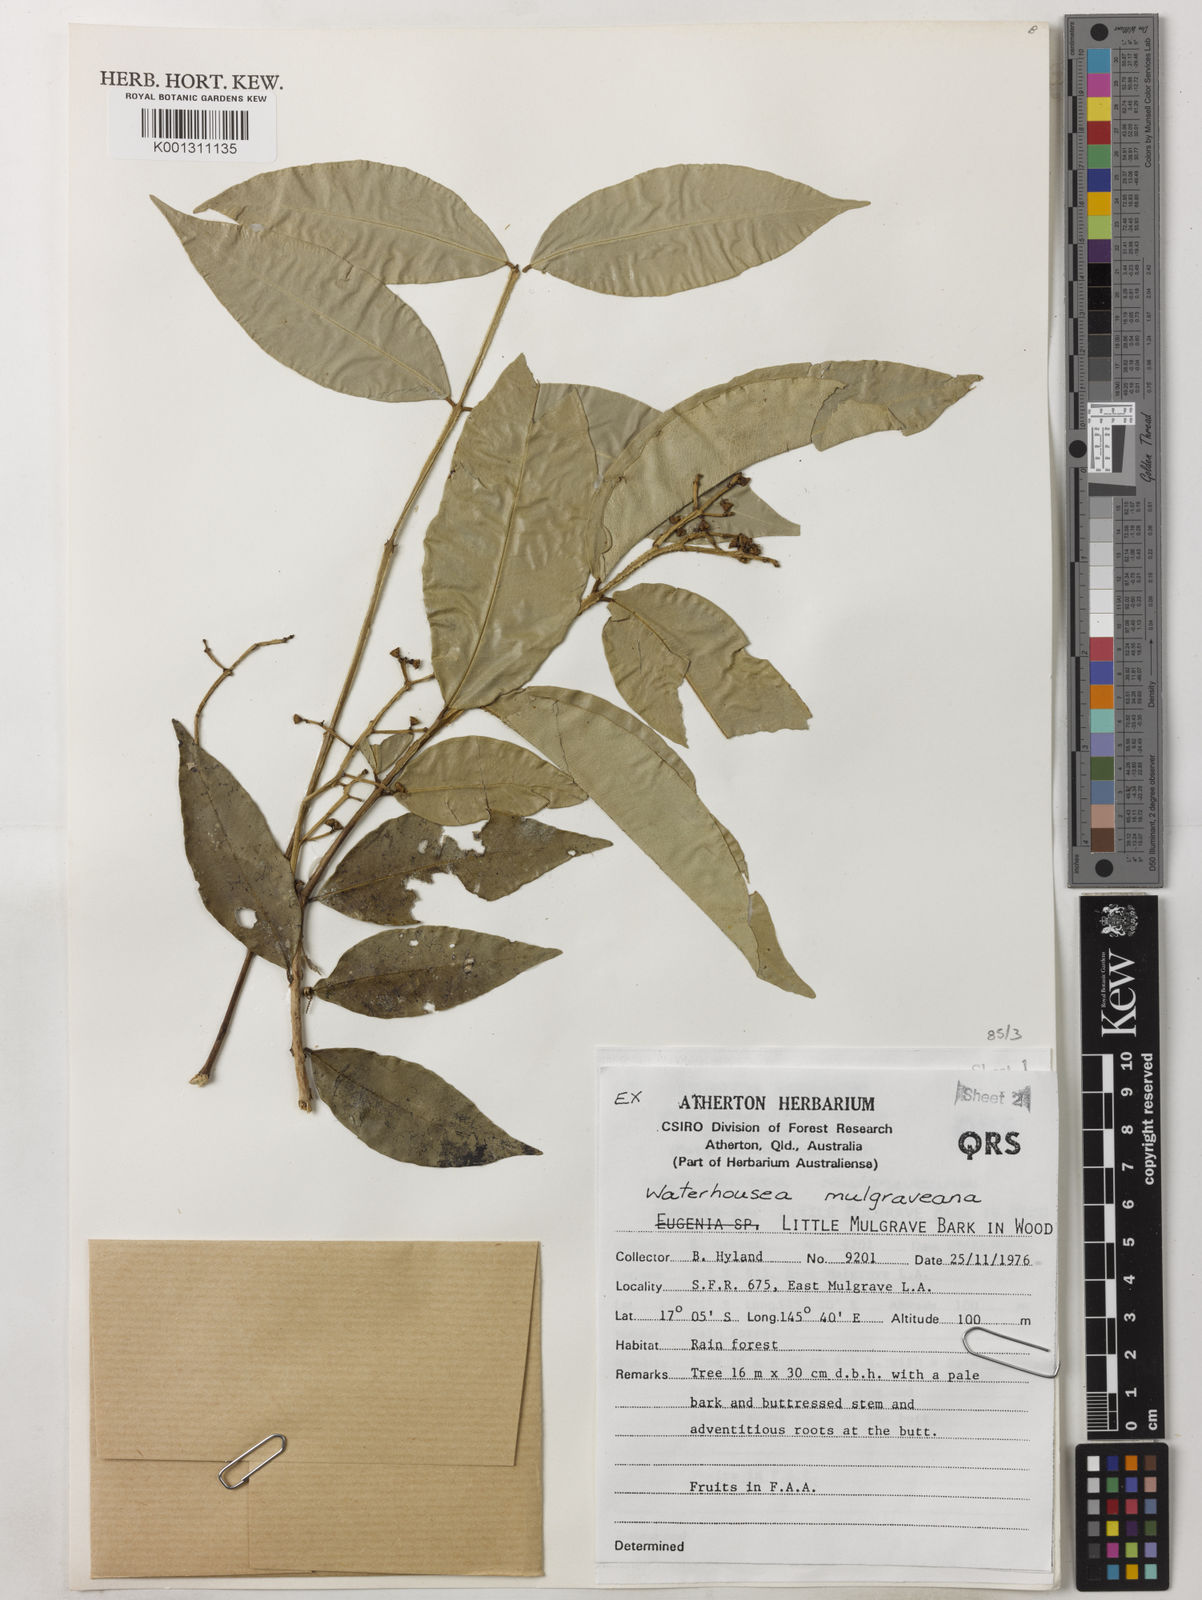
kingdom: Plantae
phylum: Tracheophyta
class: Magnoliopsida
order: Myrtales
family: Myrtaceae
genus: Syzygium
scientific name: Syzygium mulgraveanum
